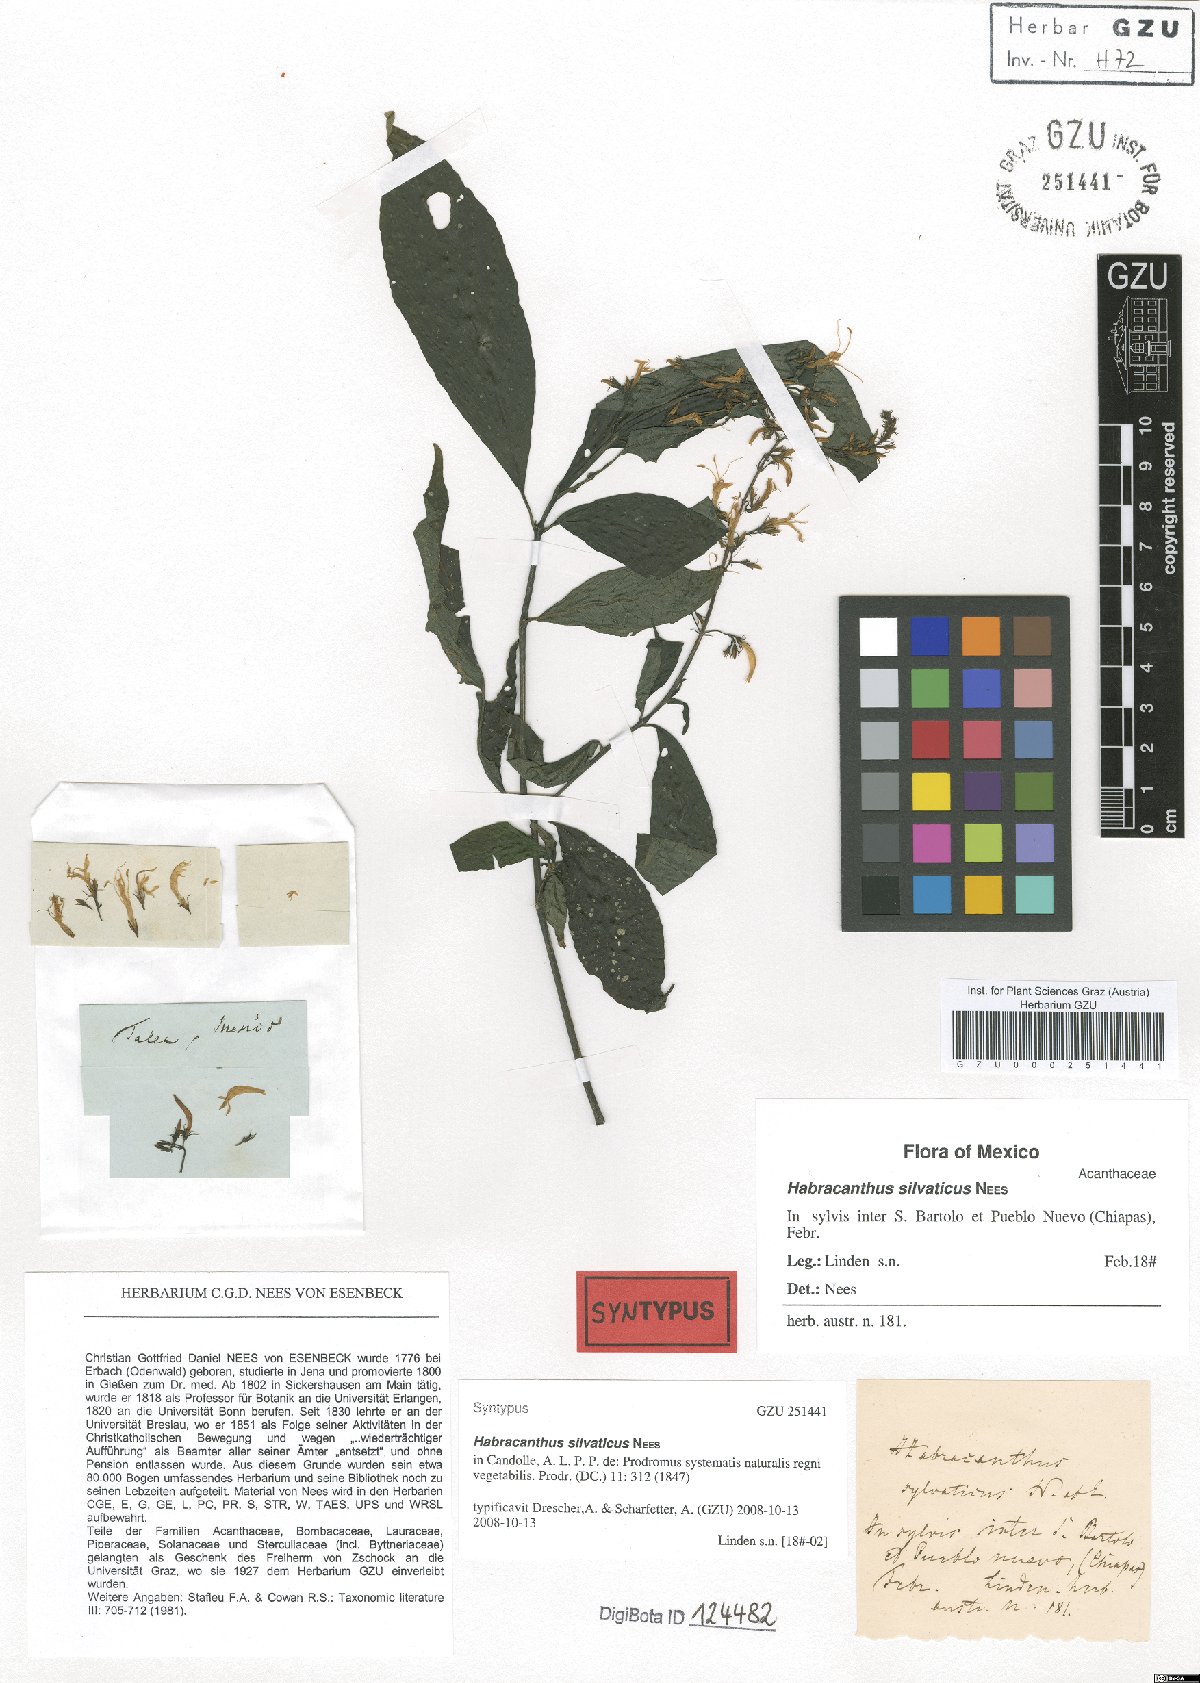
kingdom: Plantae
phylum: Tracheophyta
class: Magnoliopsida
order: Lamiales
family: Acanthaceae
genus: Stenostephanus
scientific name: Stenostephanus silvaticus
